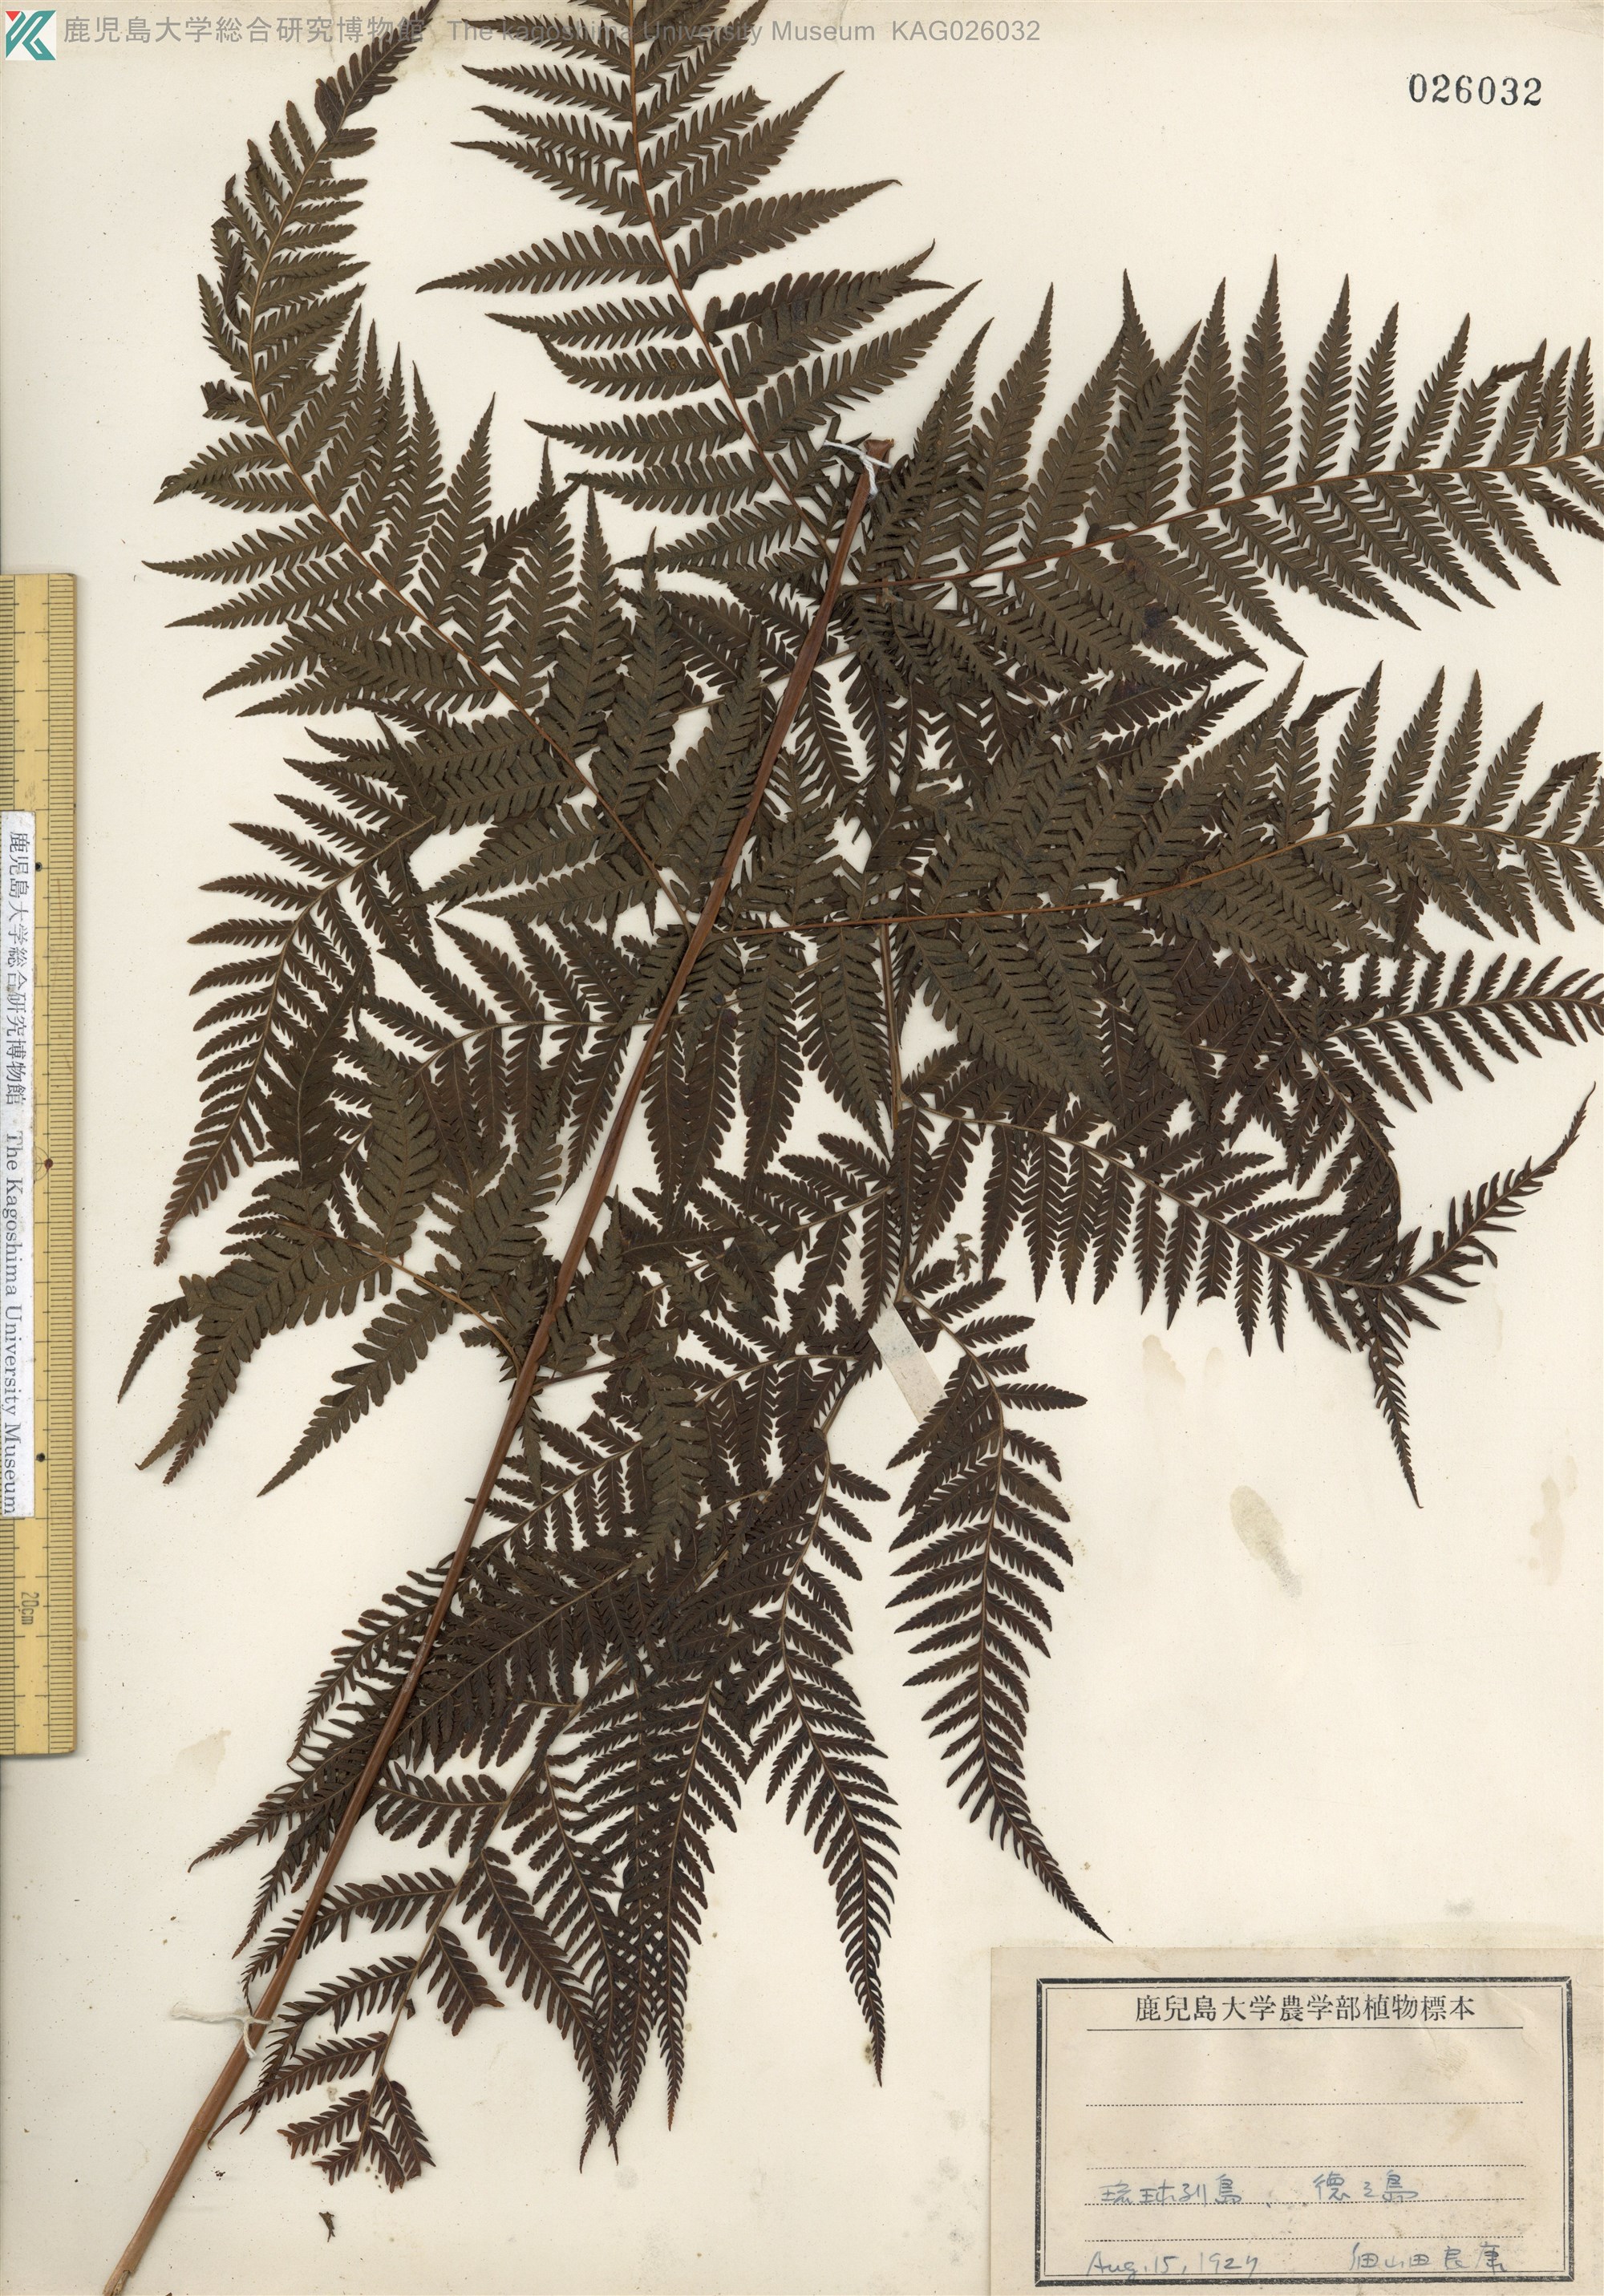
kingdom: Plantae
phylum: Tracheophyta
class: Polypodiopsida
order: Polypodiales
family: Thelypteridaceae
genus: Macrothelypteris
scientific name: Macrothelypteris oligophlebia
